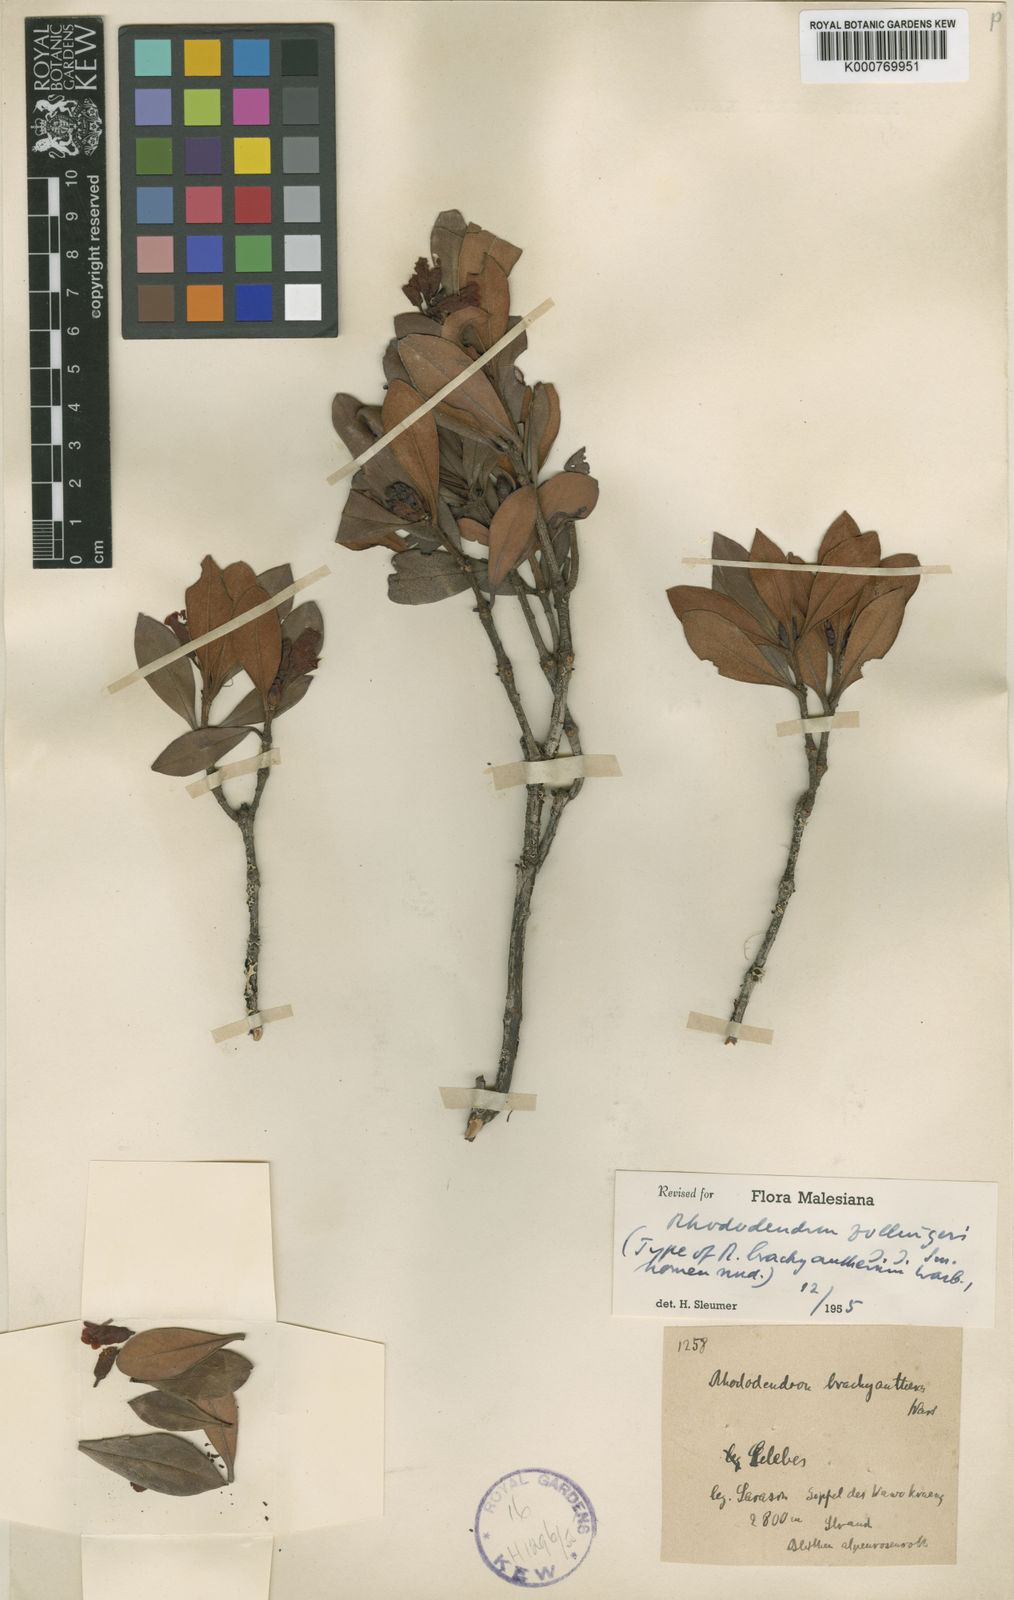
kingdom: Plantae
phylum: Tracheophyta
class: Magnoliopsida
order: Ericales
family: Ericaceae
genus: Rhododendron
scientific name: Rhododendron zollingeri
